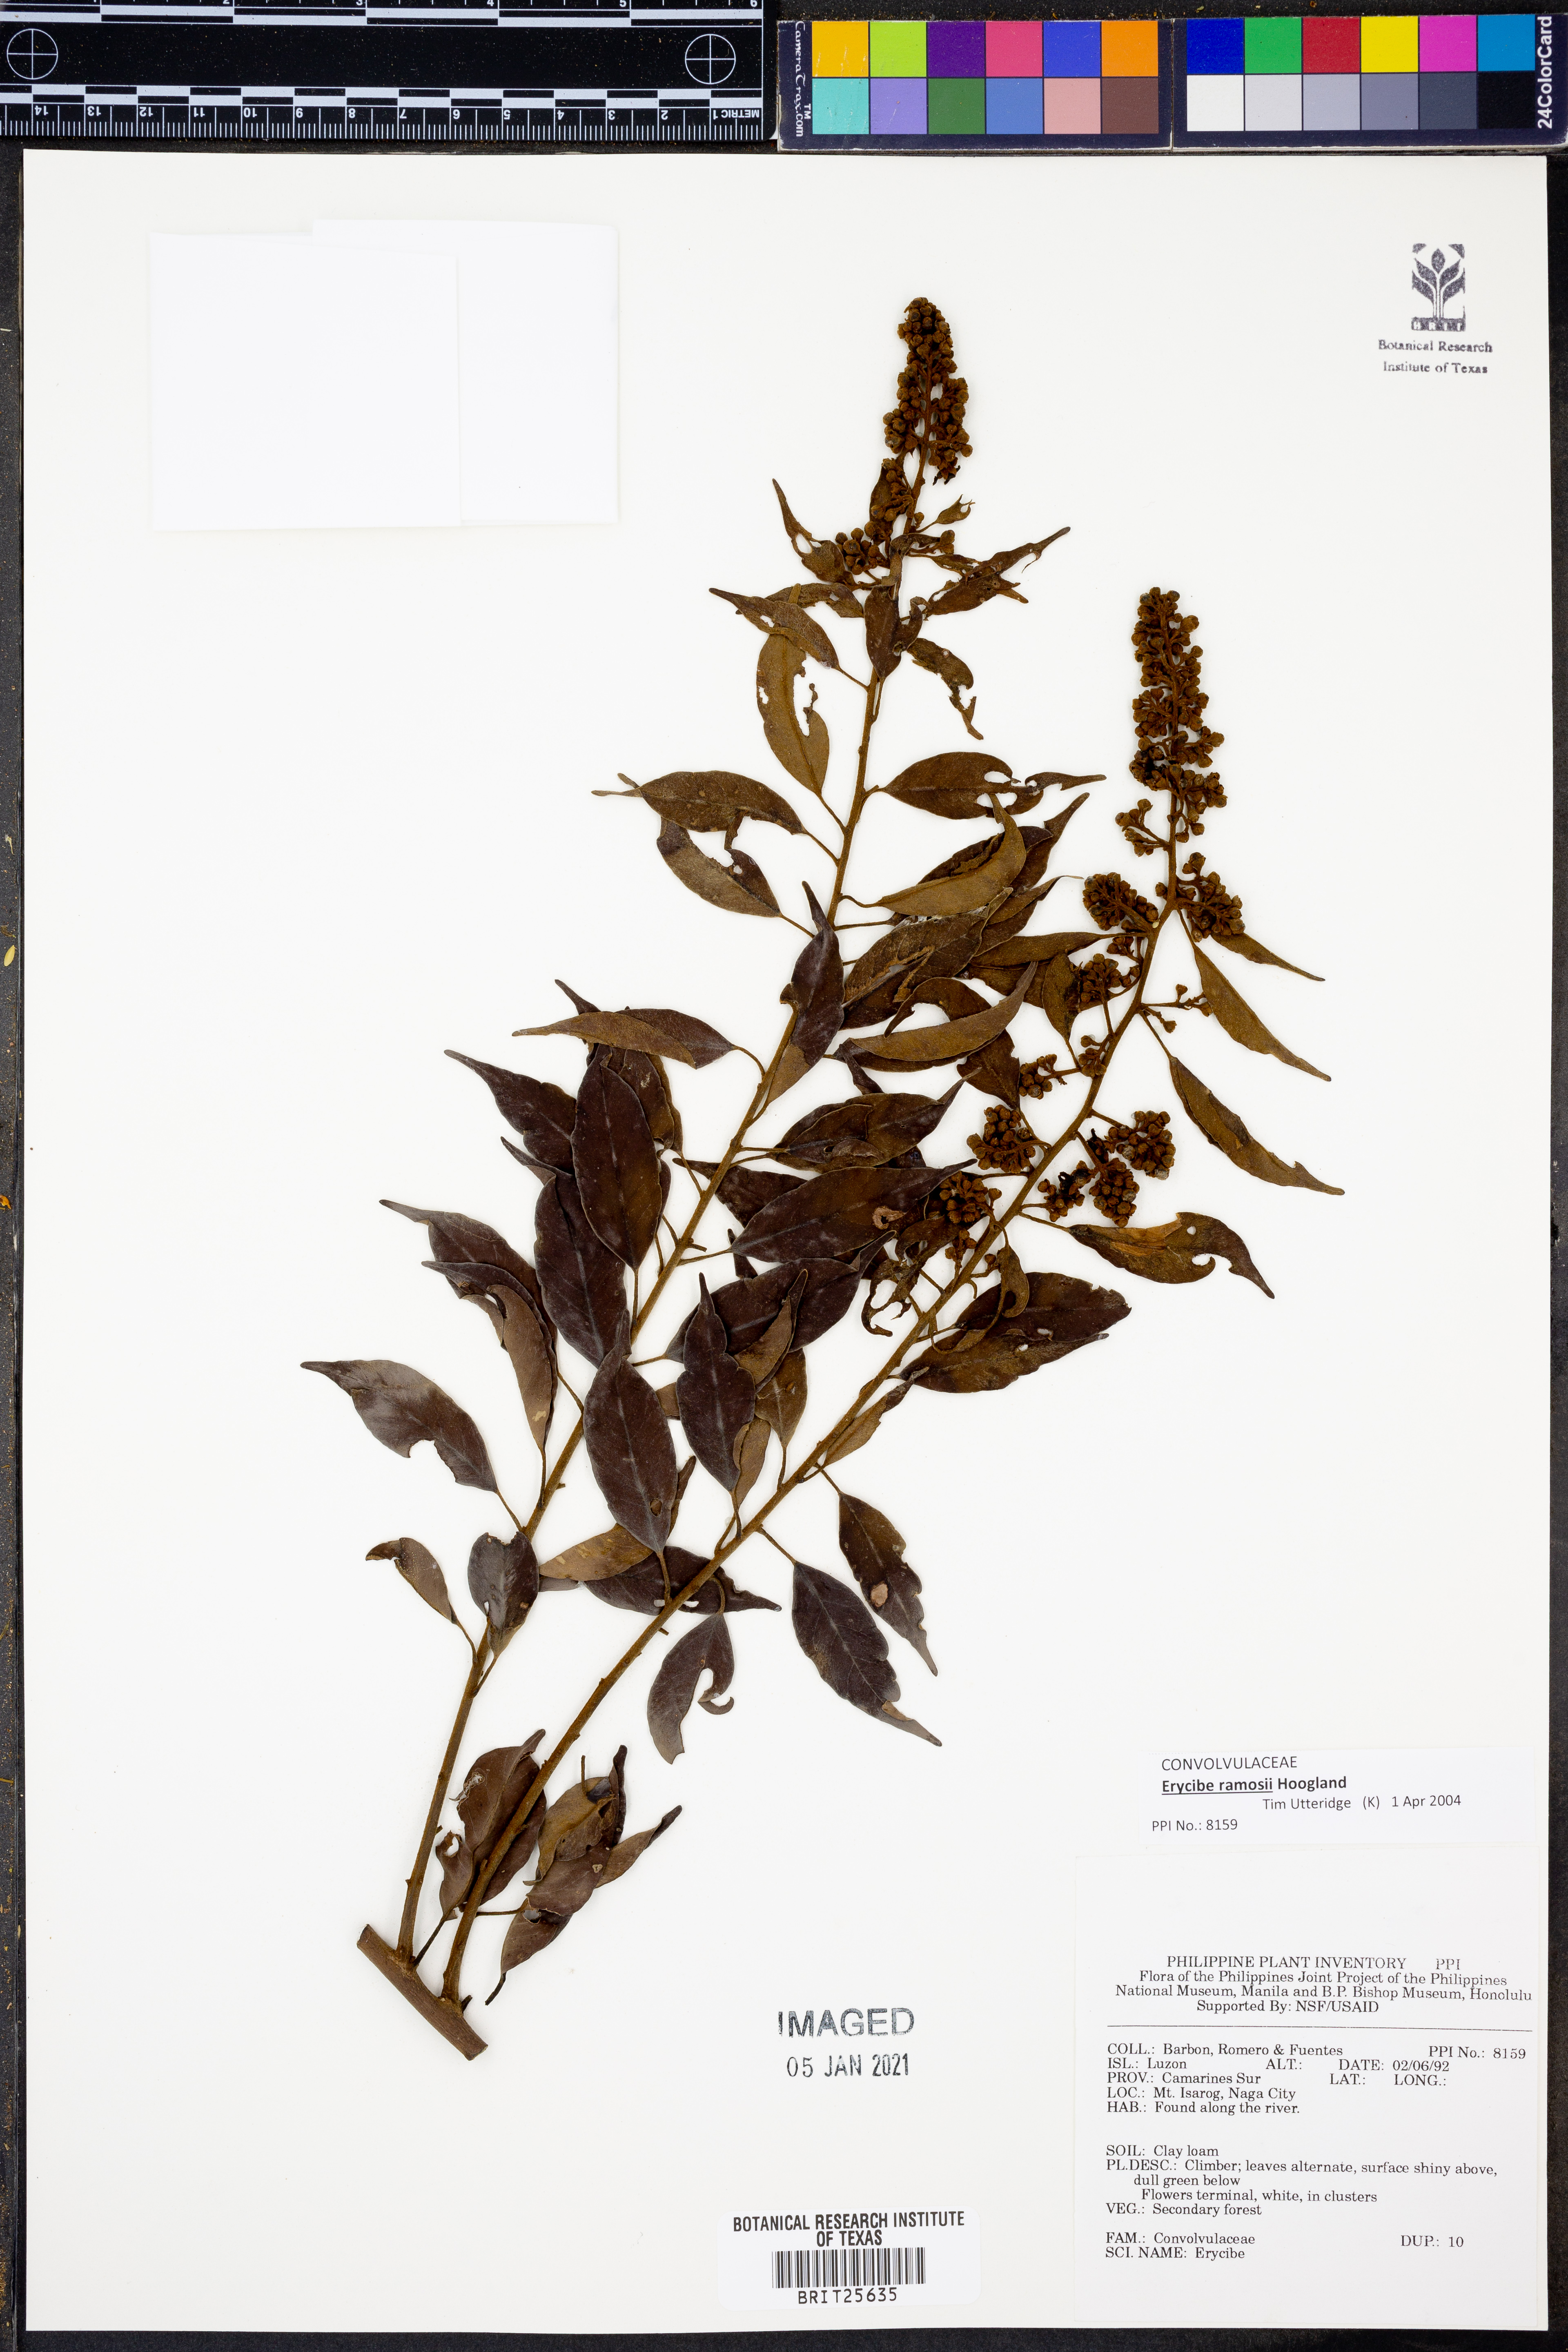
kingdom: Plantae
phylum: Tracheophyta
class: Magnoliopsida
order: Solanales
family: Convolvulaceae
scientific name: Convolvulaceae
